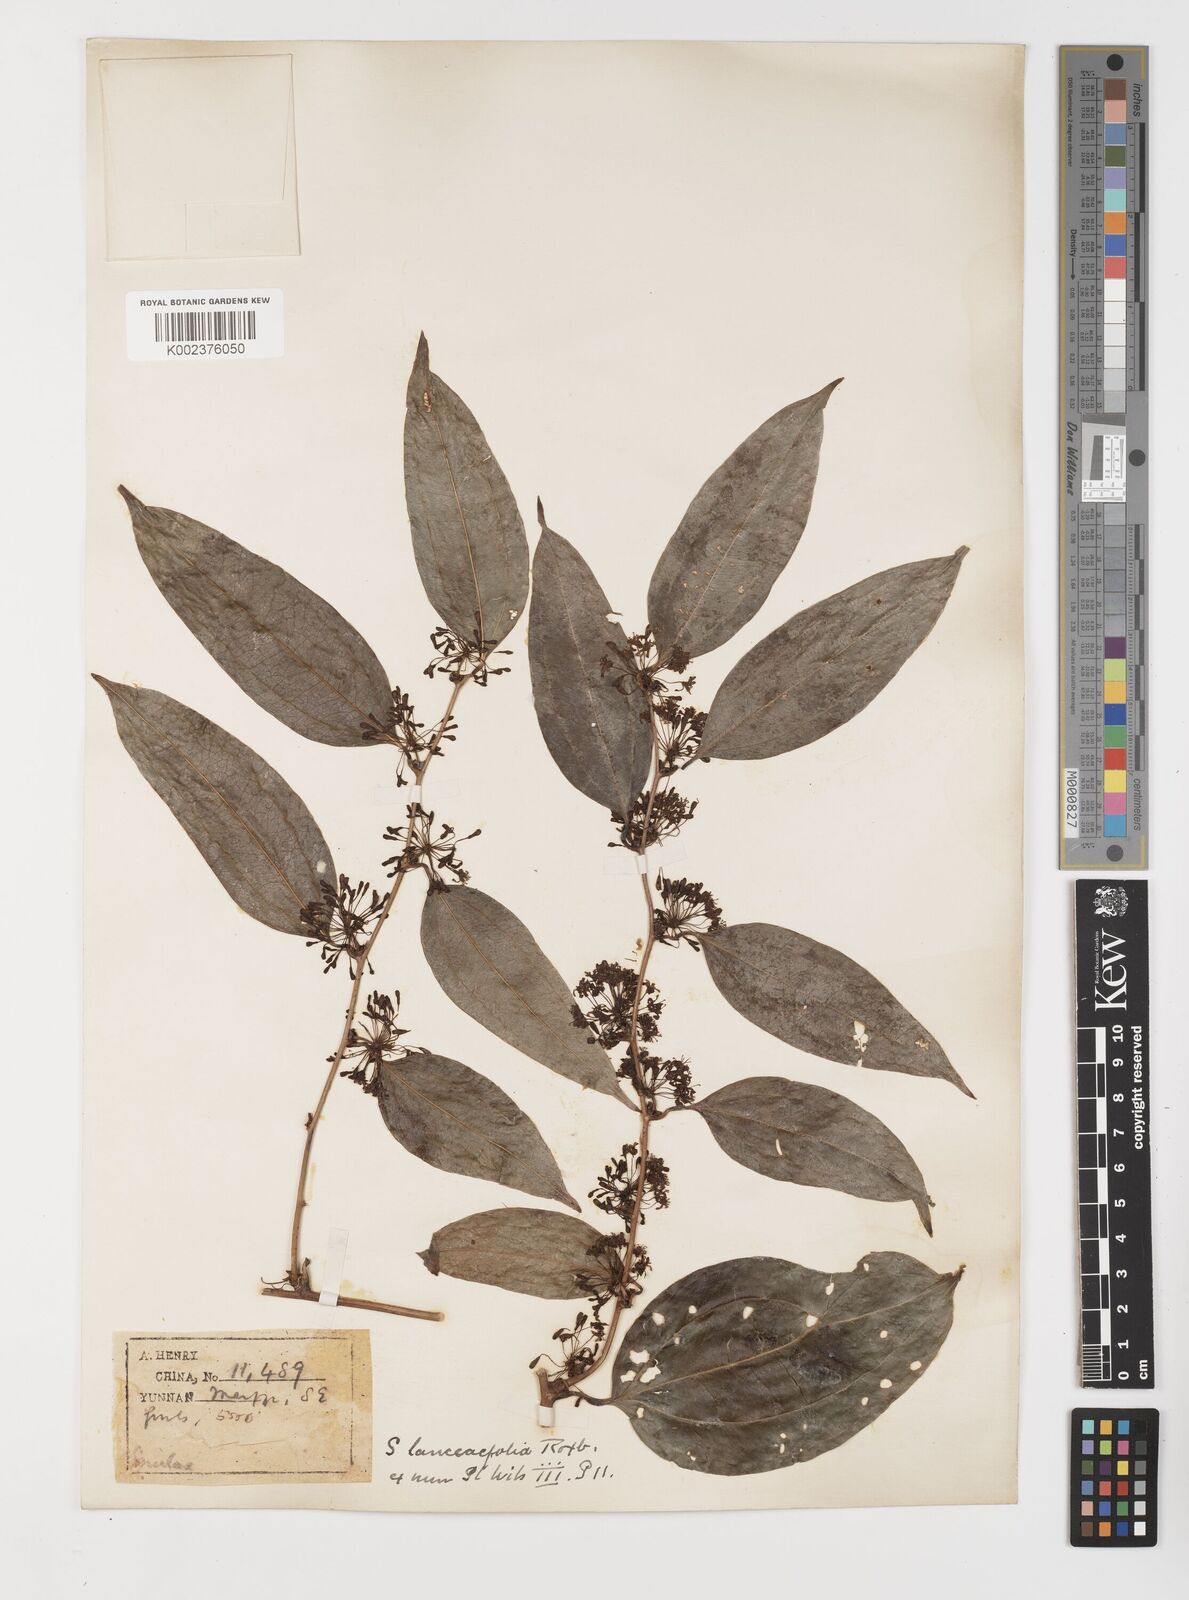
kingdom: Plantae
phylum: Tracheophyta
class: Liliopsida
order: Liliales
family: Smilacaceae
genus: Smilax
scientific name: Smilax lanceifolia
